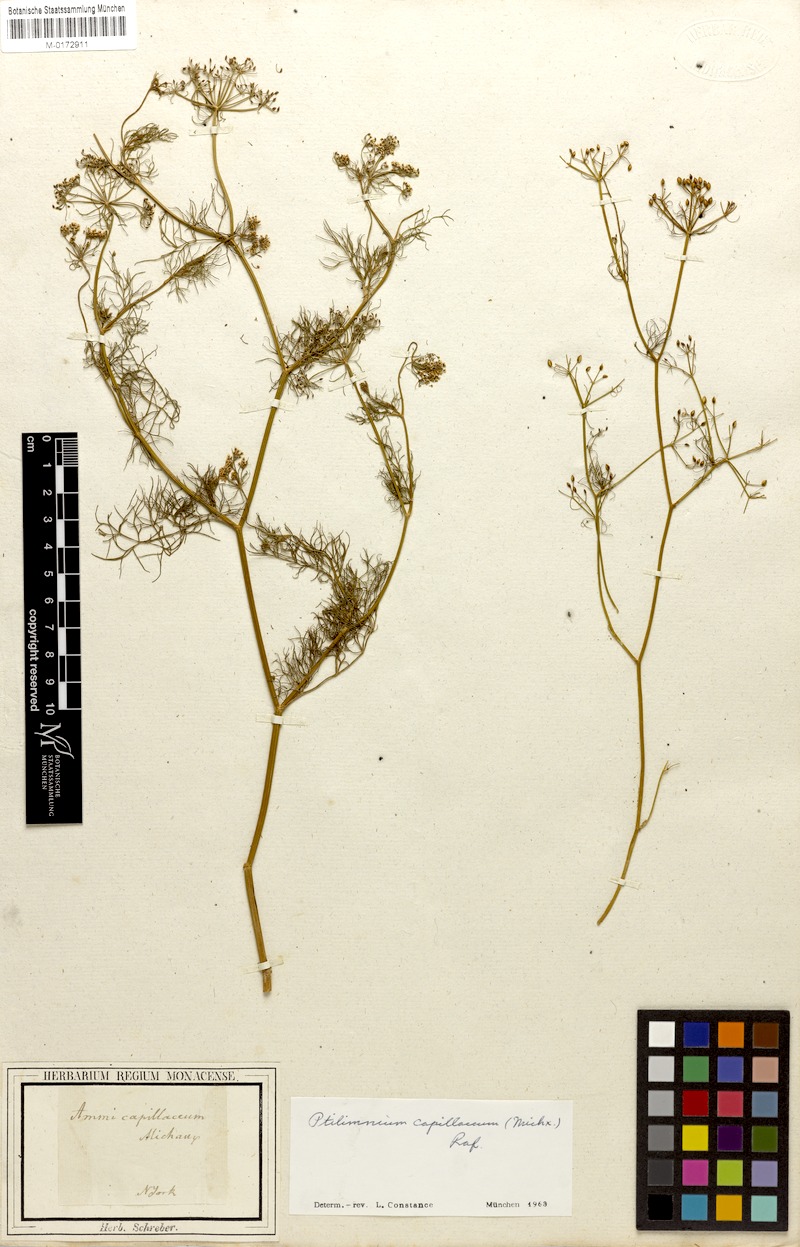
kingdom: Plantae
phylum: Tracheophyta
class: Magnoliopsida
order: Apiales
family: Apiaceae
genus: Ptilimnium
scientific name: Ptilimnium capillaceum
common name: Herbwilliam
